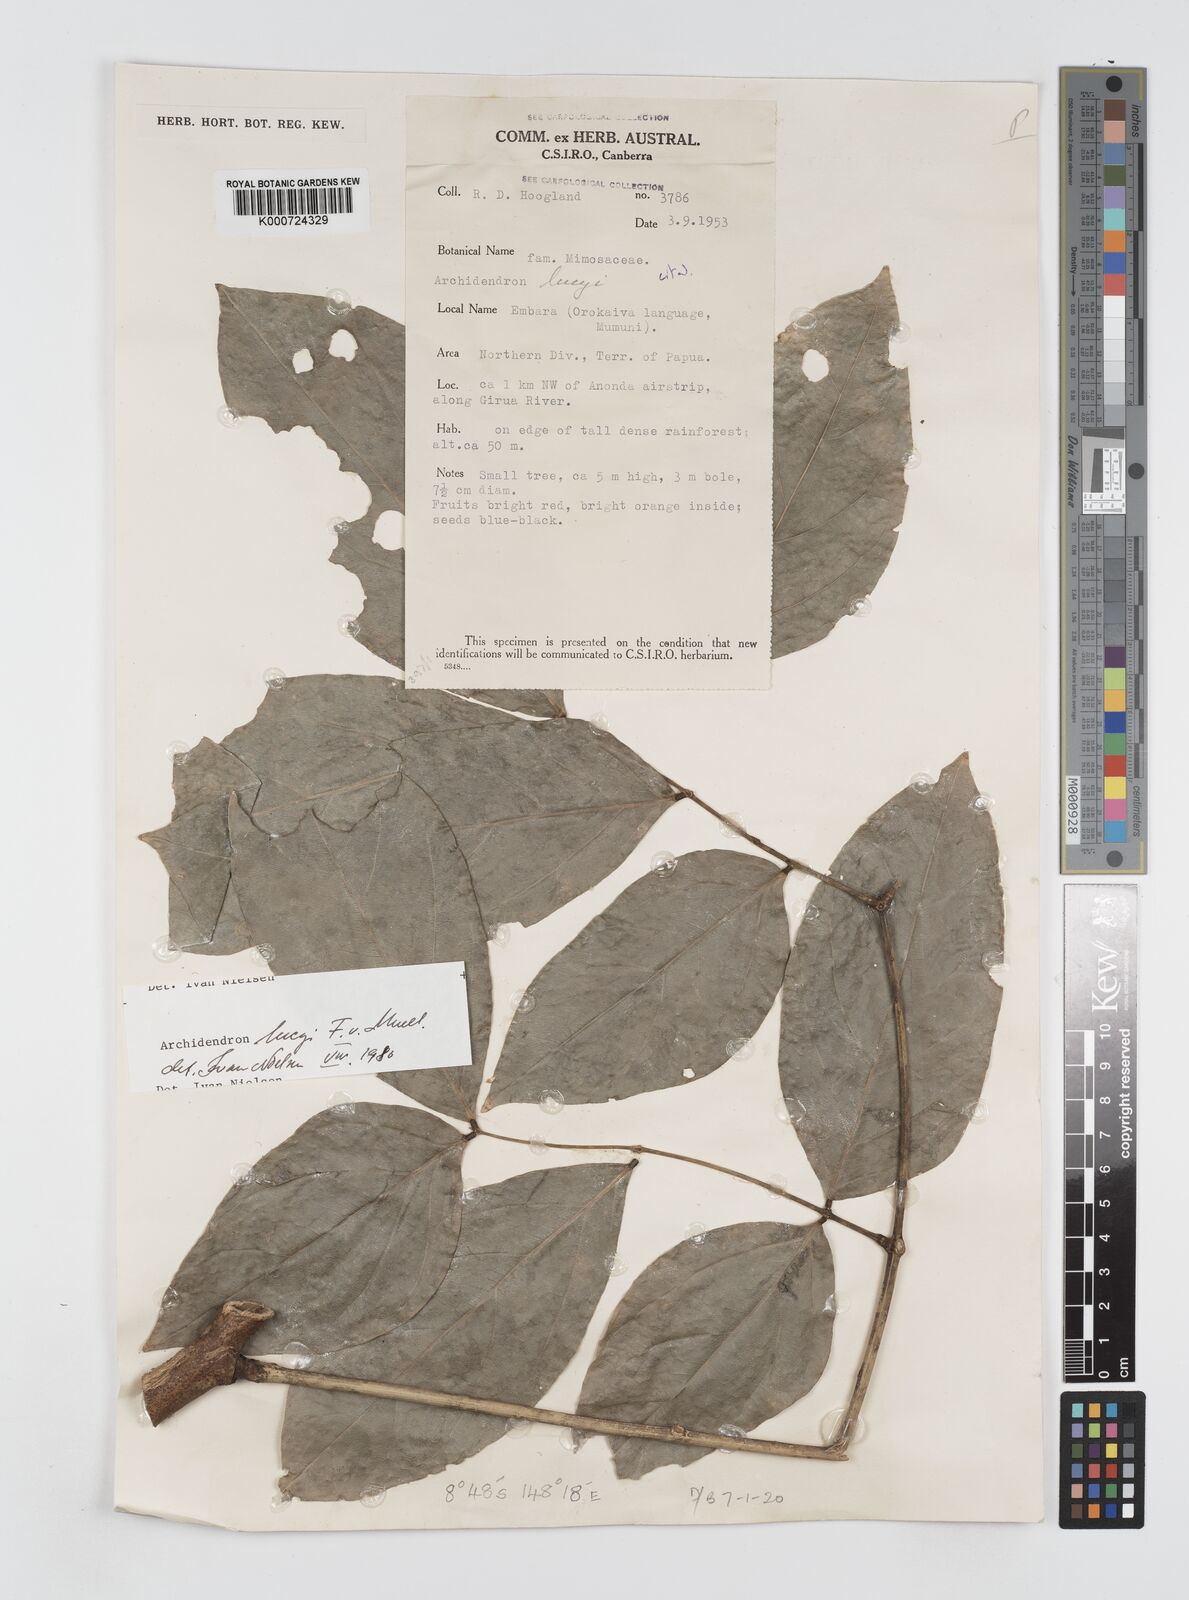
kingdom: Plantae
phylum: Tracheophyta
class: Magnoliopsida
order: Fabales
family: Fabaceae
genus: Archidendron
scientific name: Archidendron lucyi
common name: Scarlet bean
